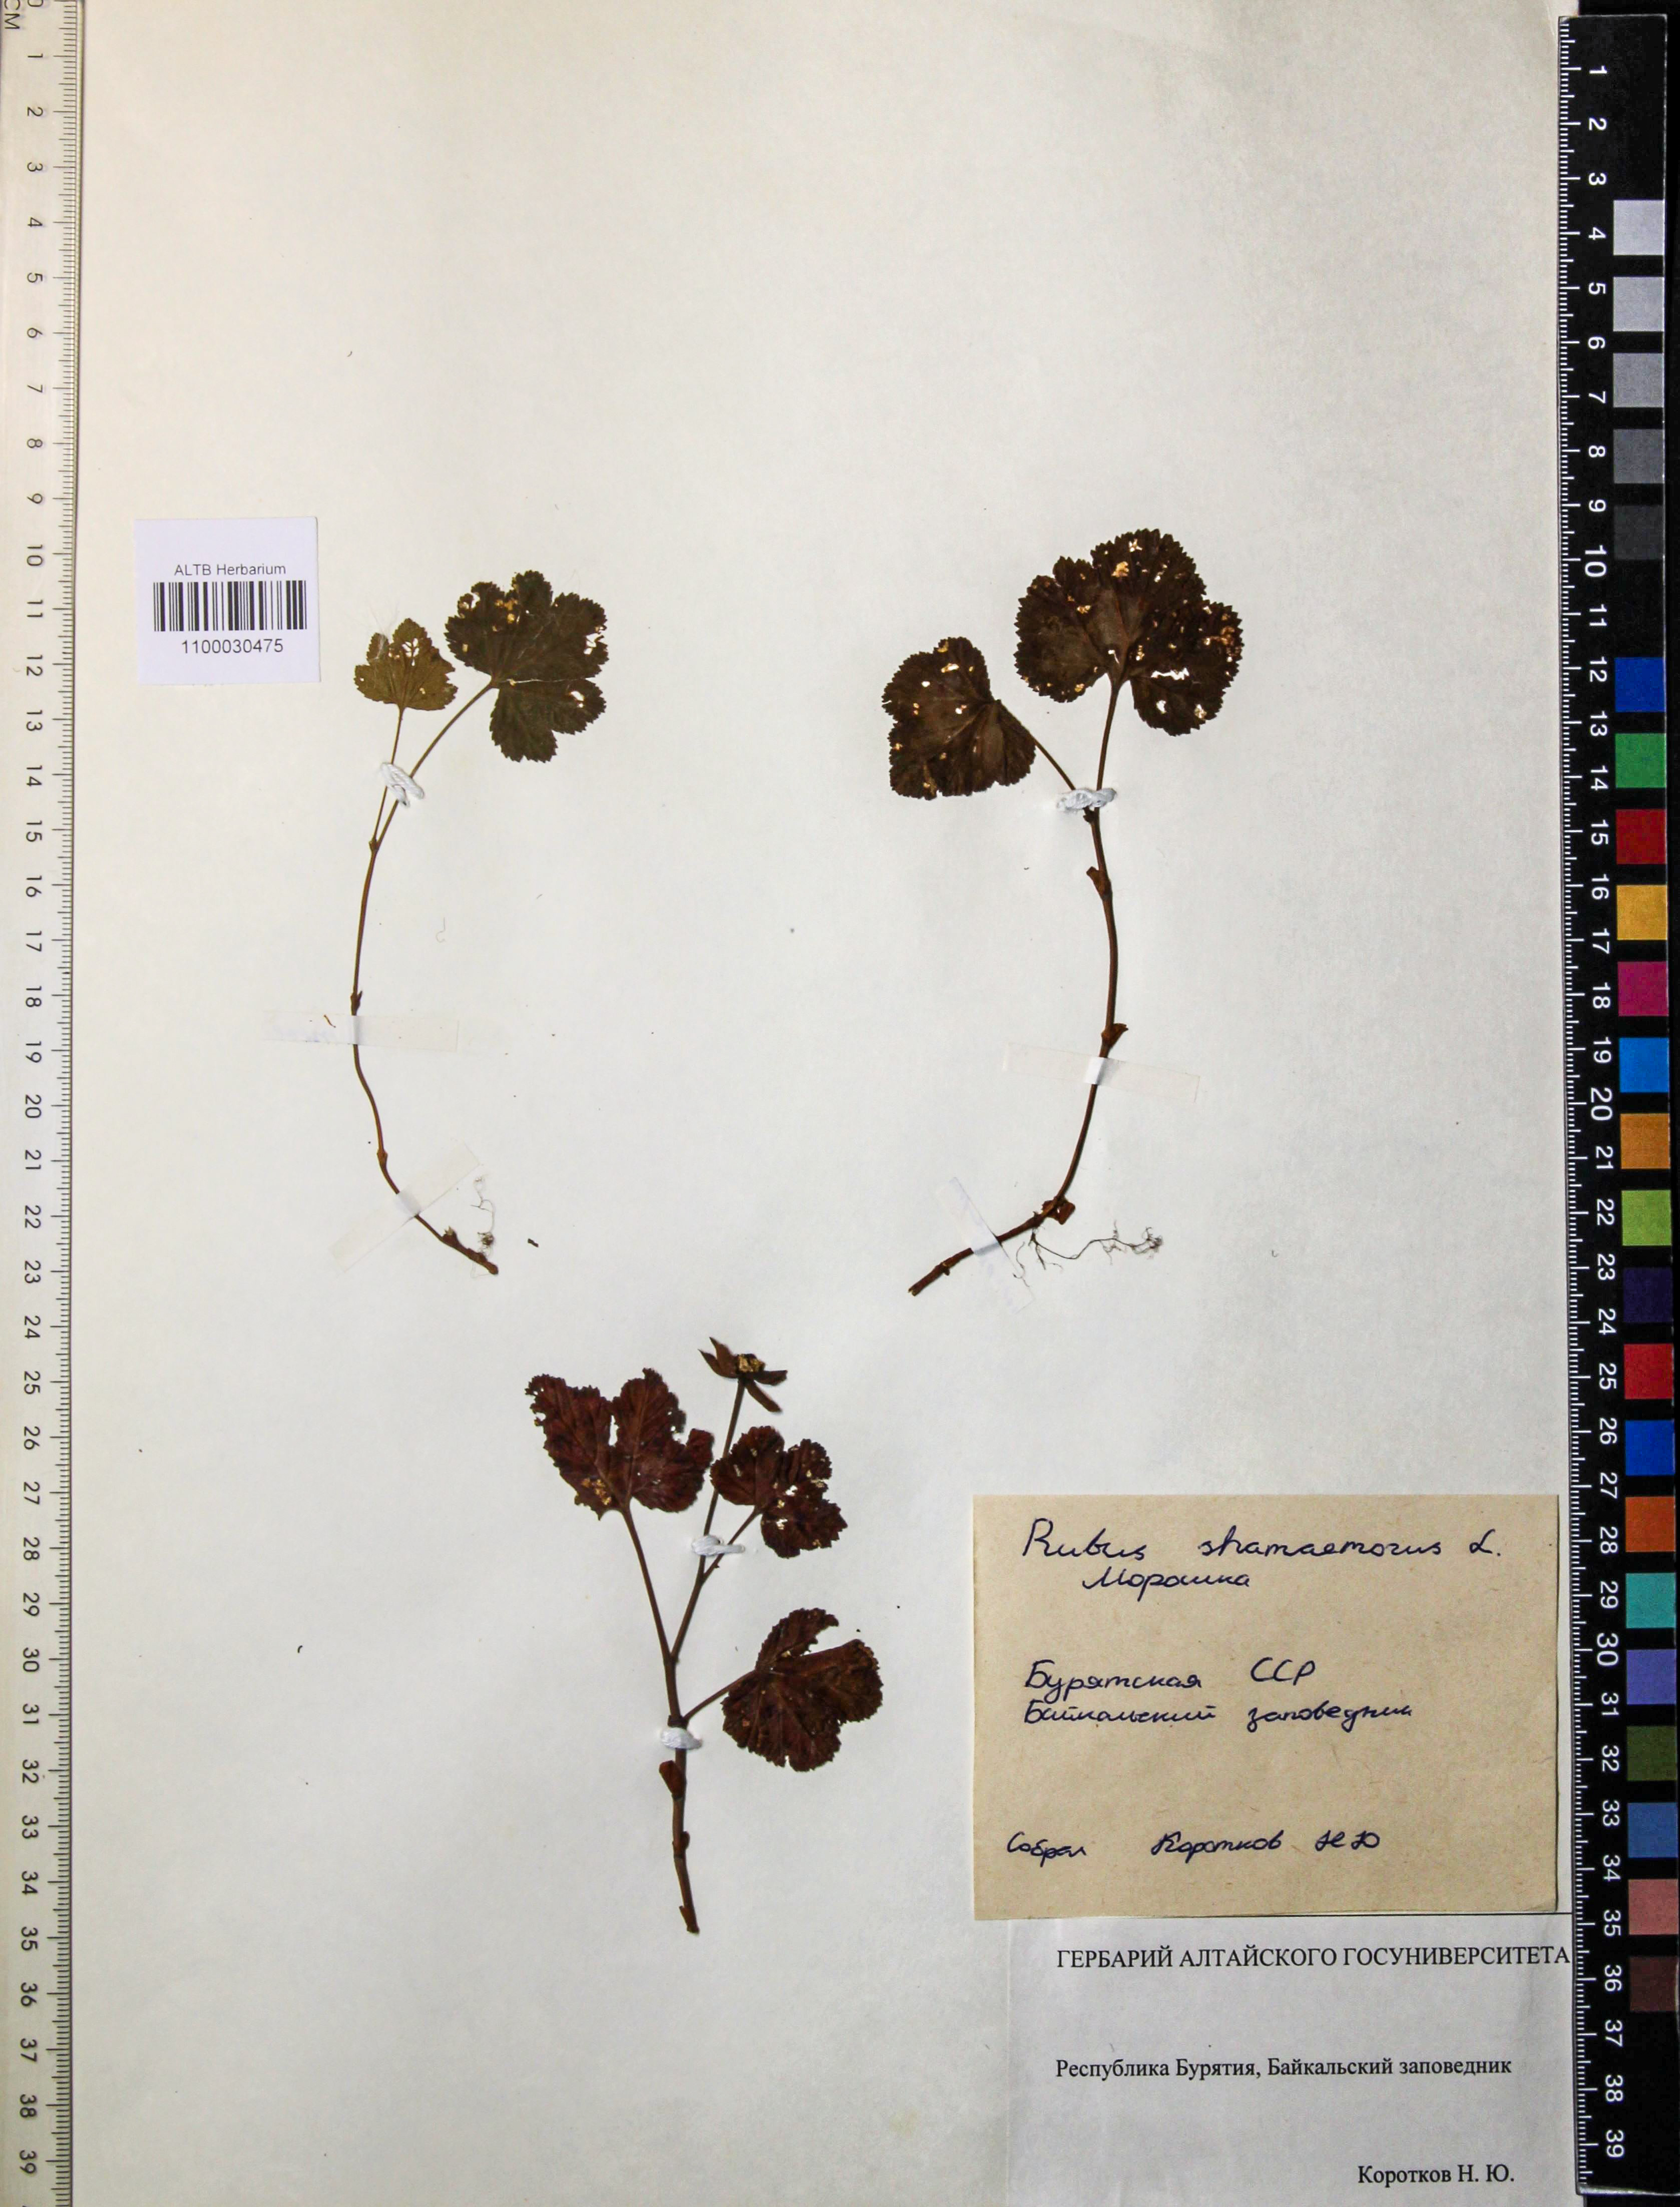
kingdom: Plantae
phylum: Tracheophyta
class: Magnoliopsida
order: Rosales
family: Rosaceae
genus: Rubus
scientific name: Rubus chamaemorus
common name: Cloudberry
